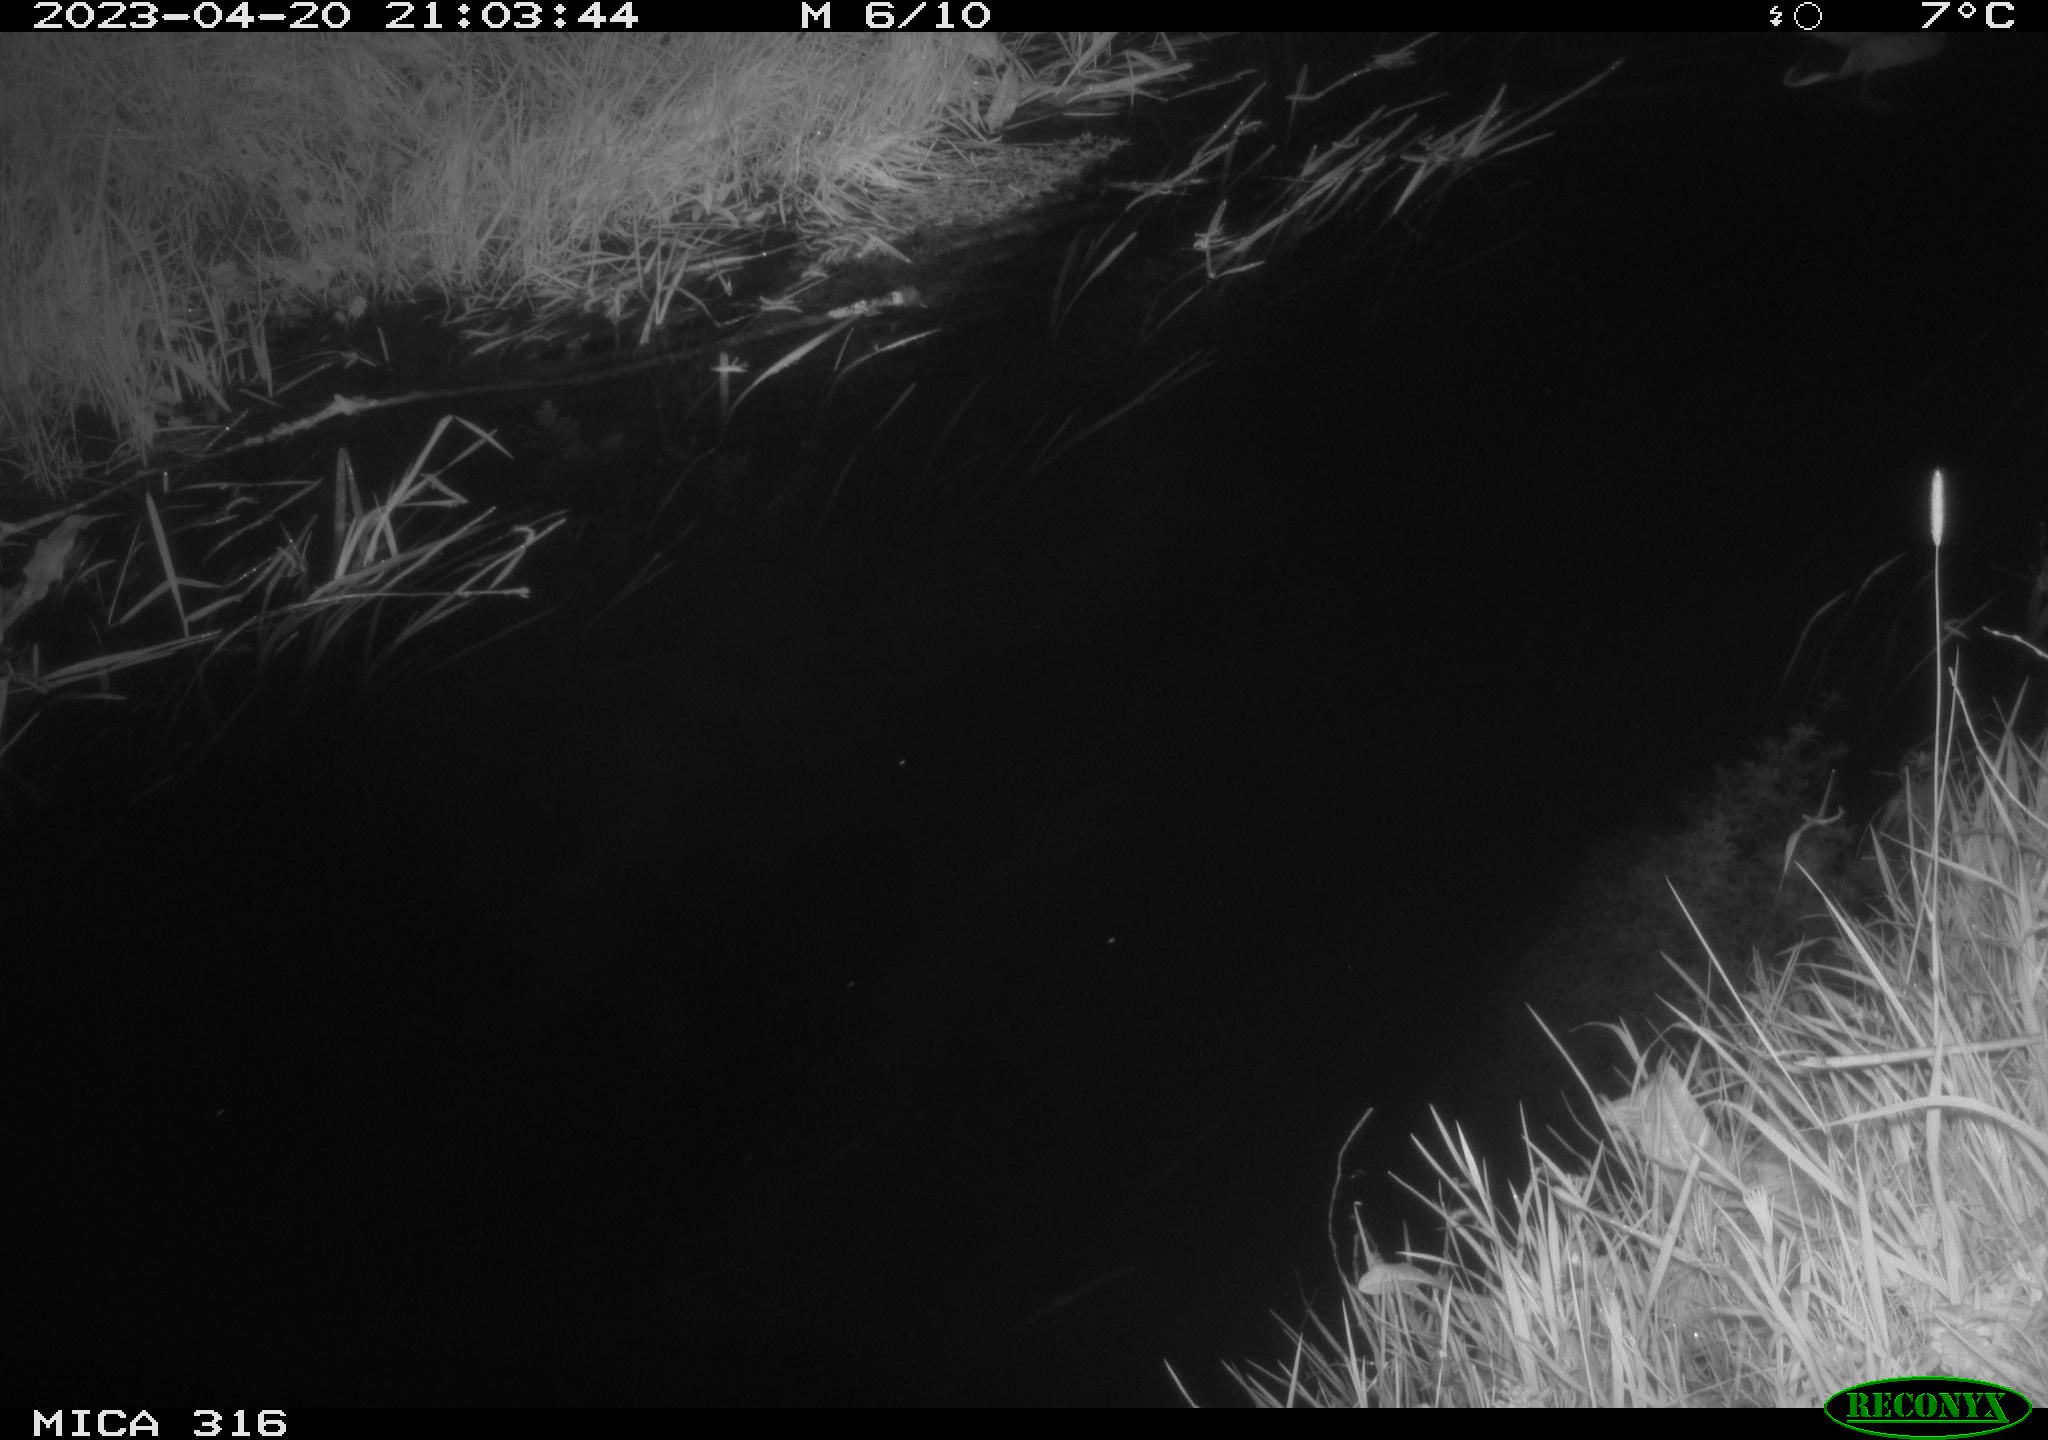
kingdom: Animalia
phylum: Chordata
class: Aves
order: Anseriformes
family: Anatidae
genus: Anas
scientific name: Anas
